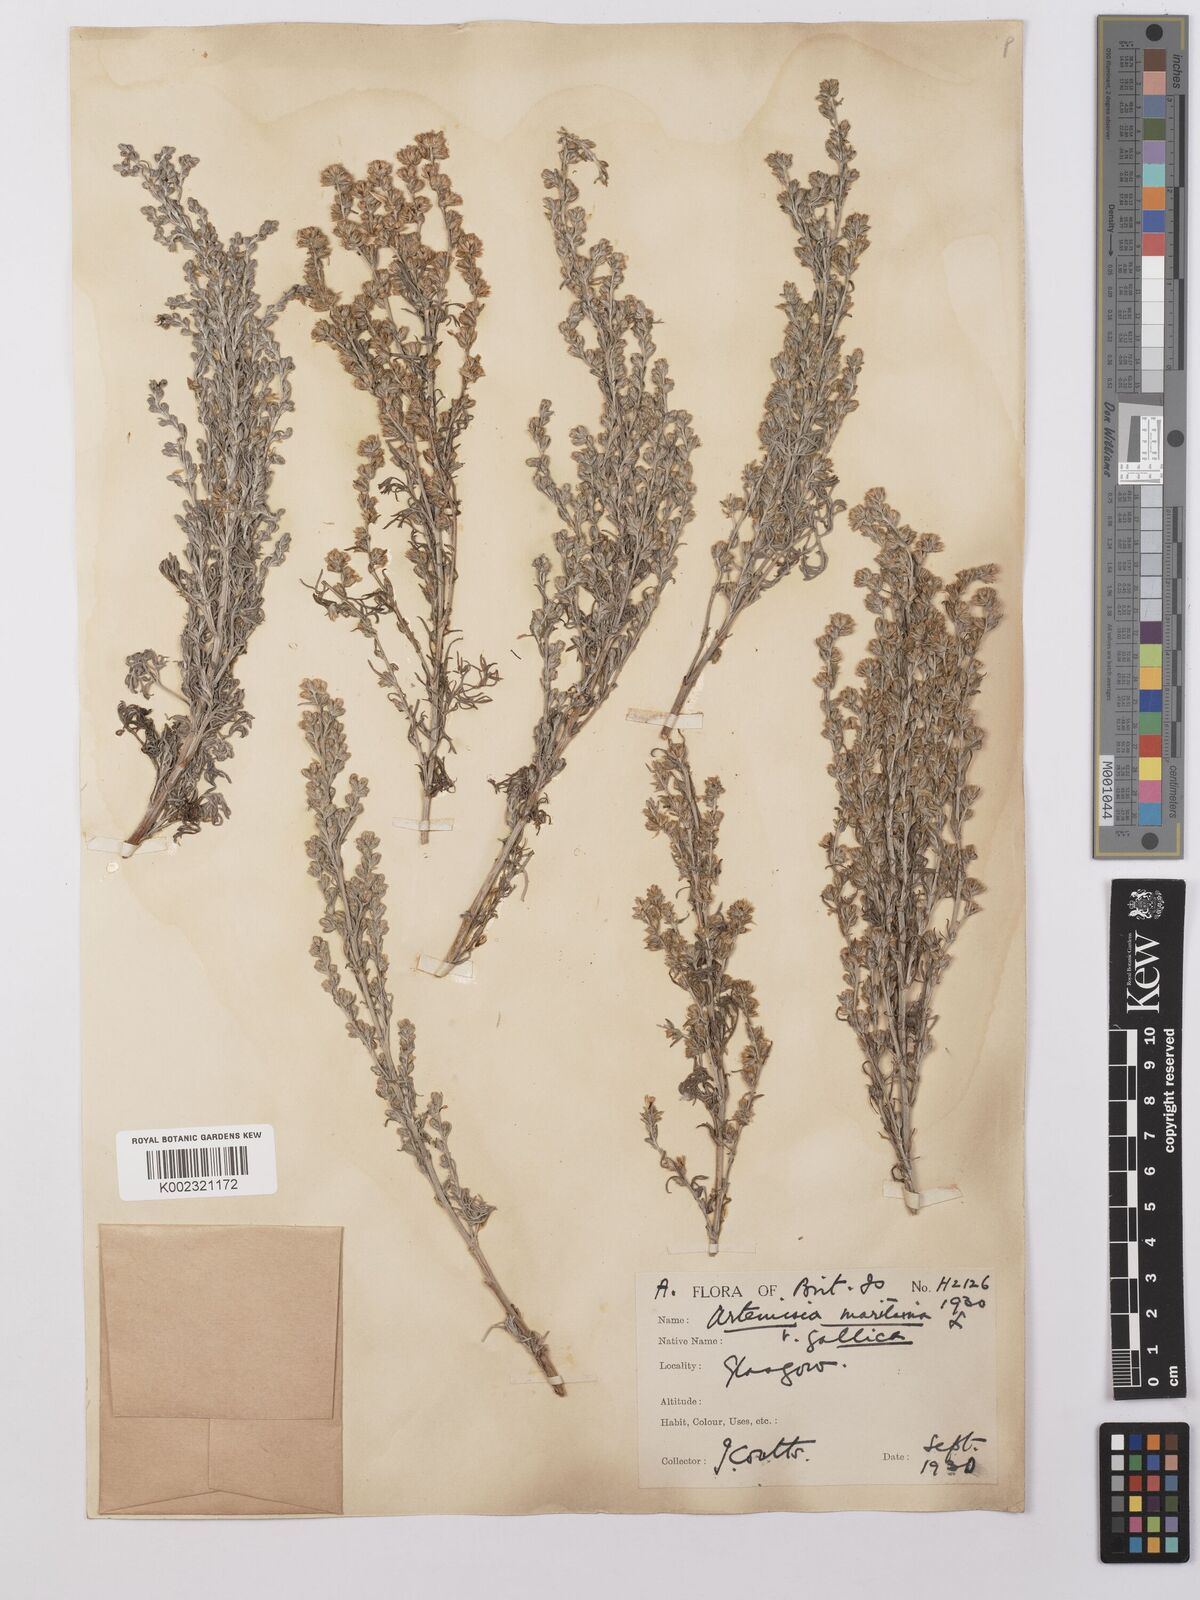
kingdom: Plantae
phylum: Tracheophyta
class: Magnoliopsida
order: Asterales
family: Asteraceae
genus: Artemisia
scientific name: Artemisia maritima
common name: Wormseed
